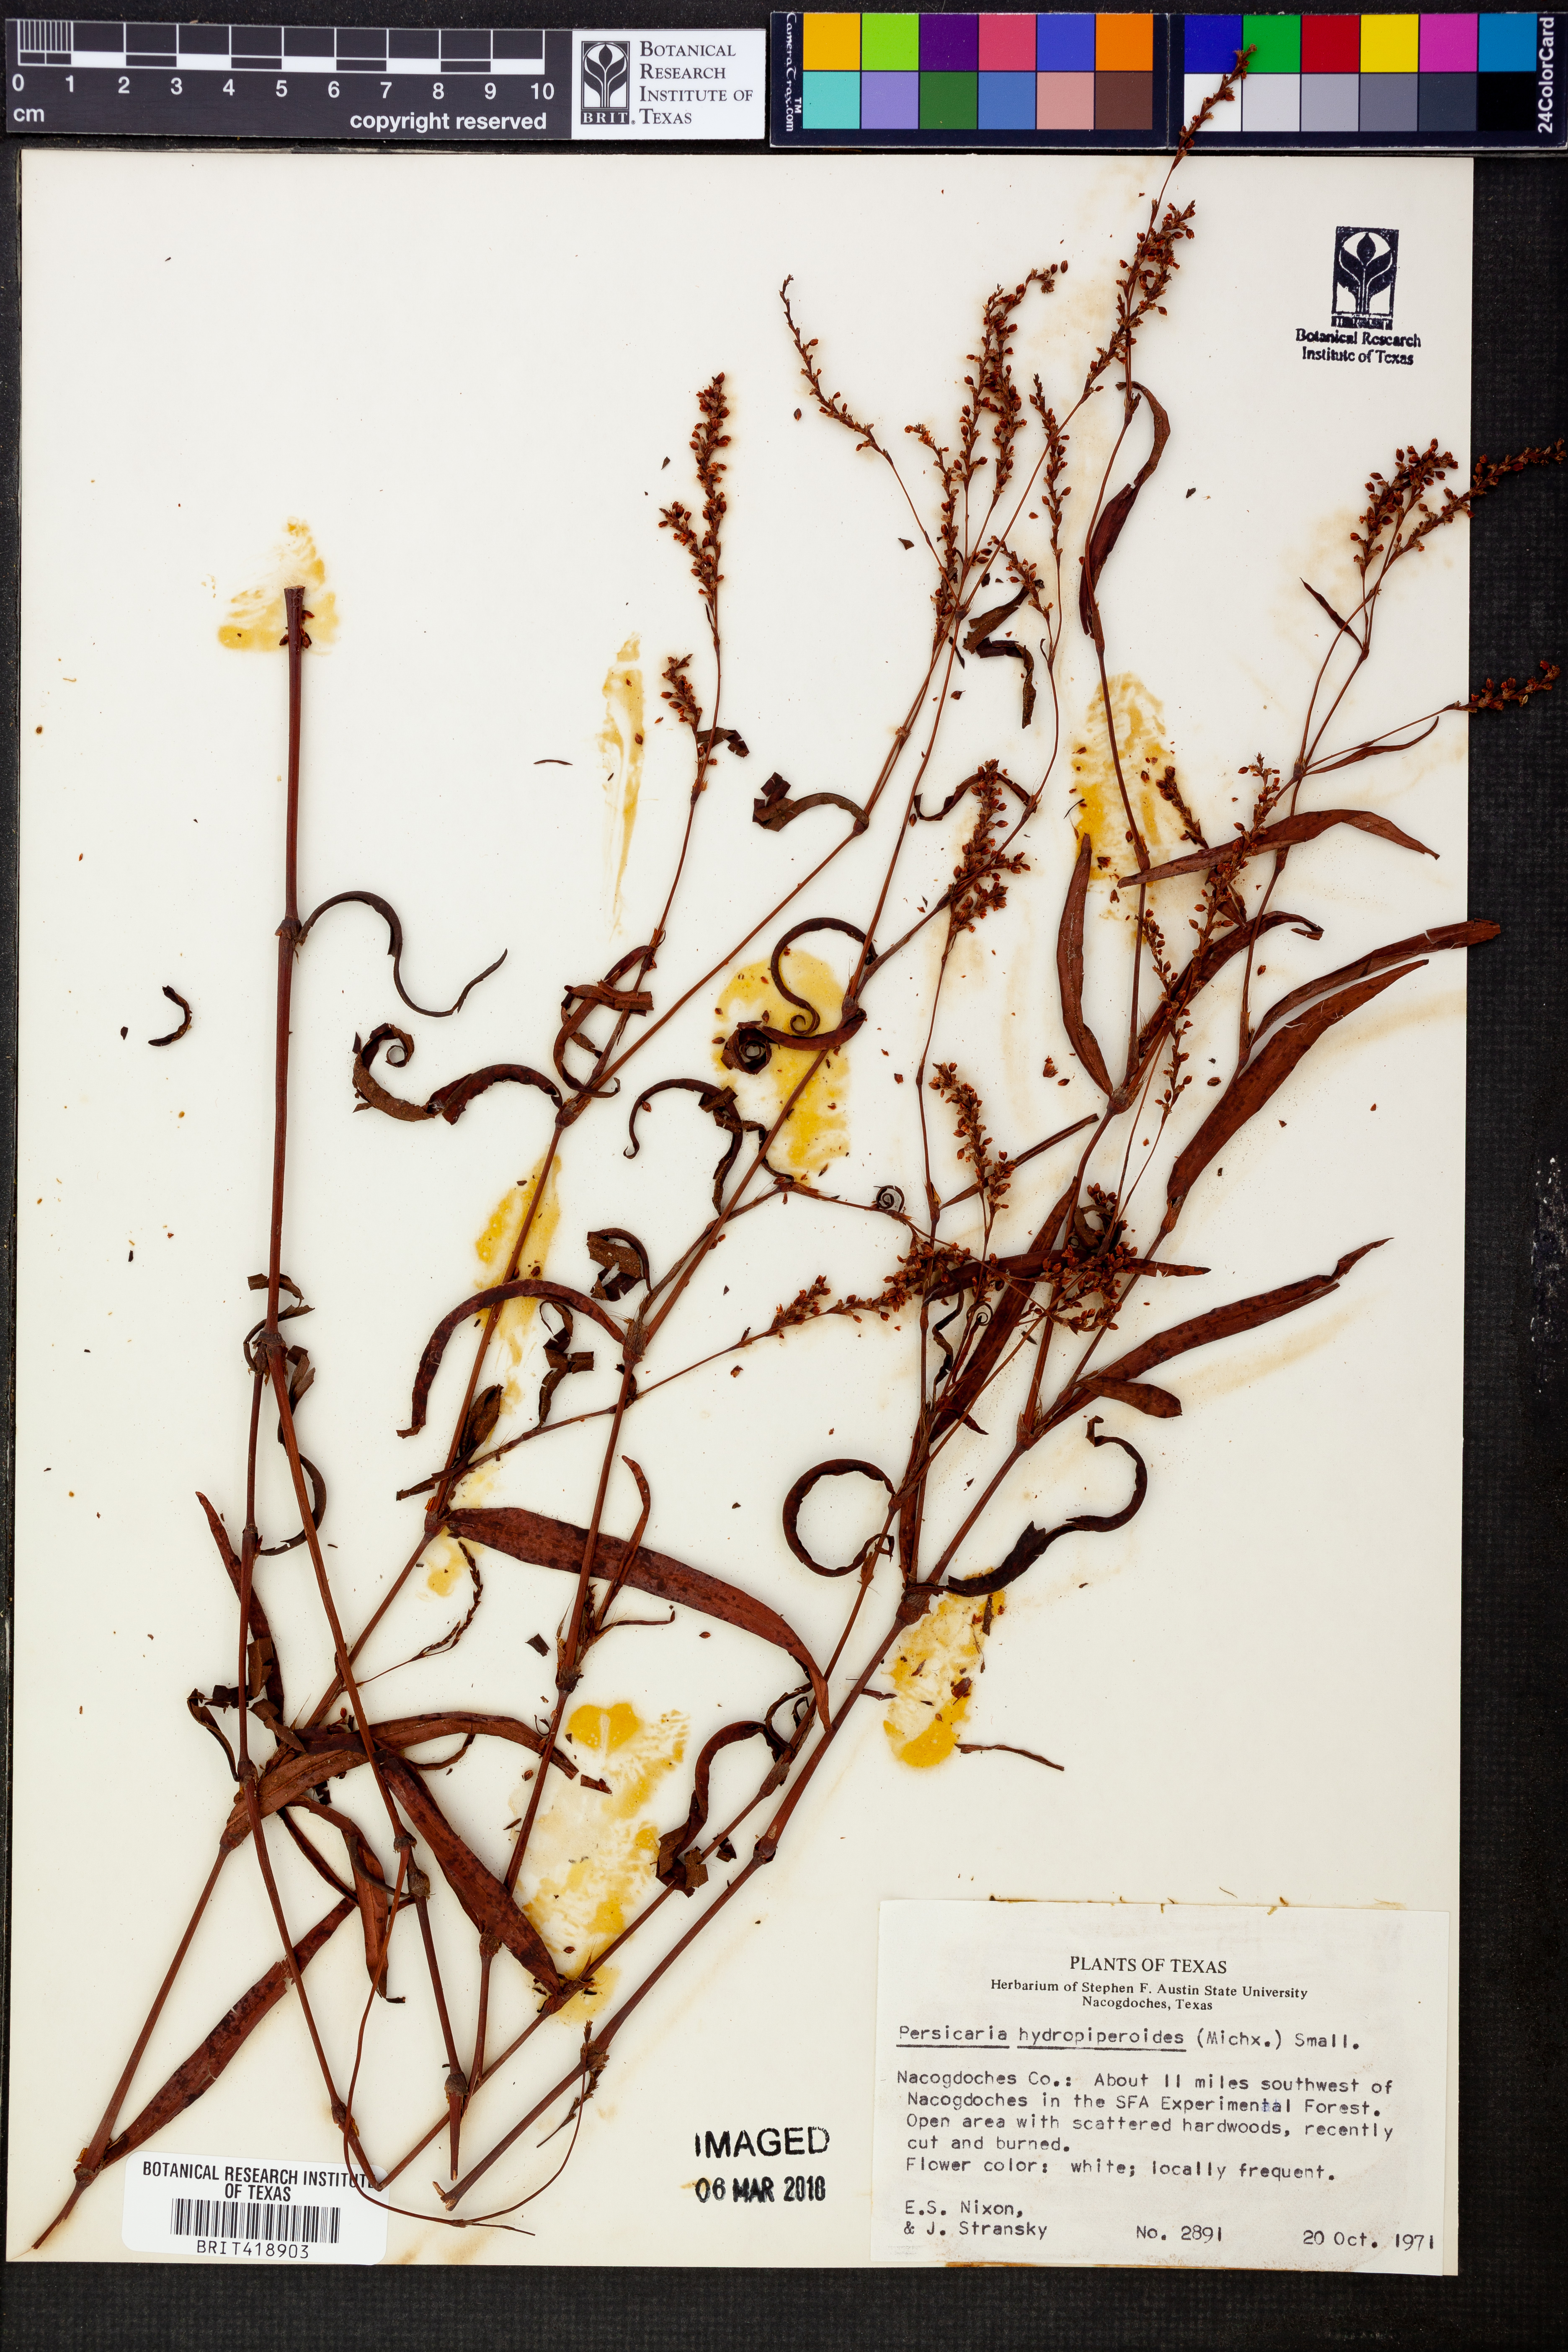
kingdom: Plantae
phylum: Tracheophyta
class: Magnoliopsida
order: Caryophyllales
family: Polygonaceae
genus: Persicaria
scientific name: Persicaria hydropiperoides
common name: Swamp smartweed
